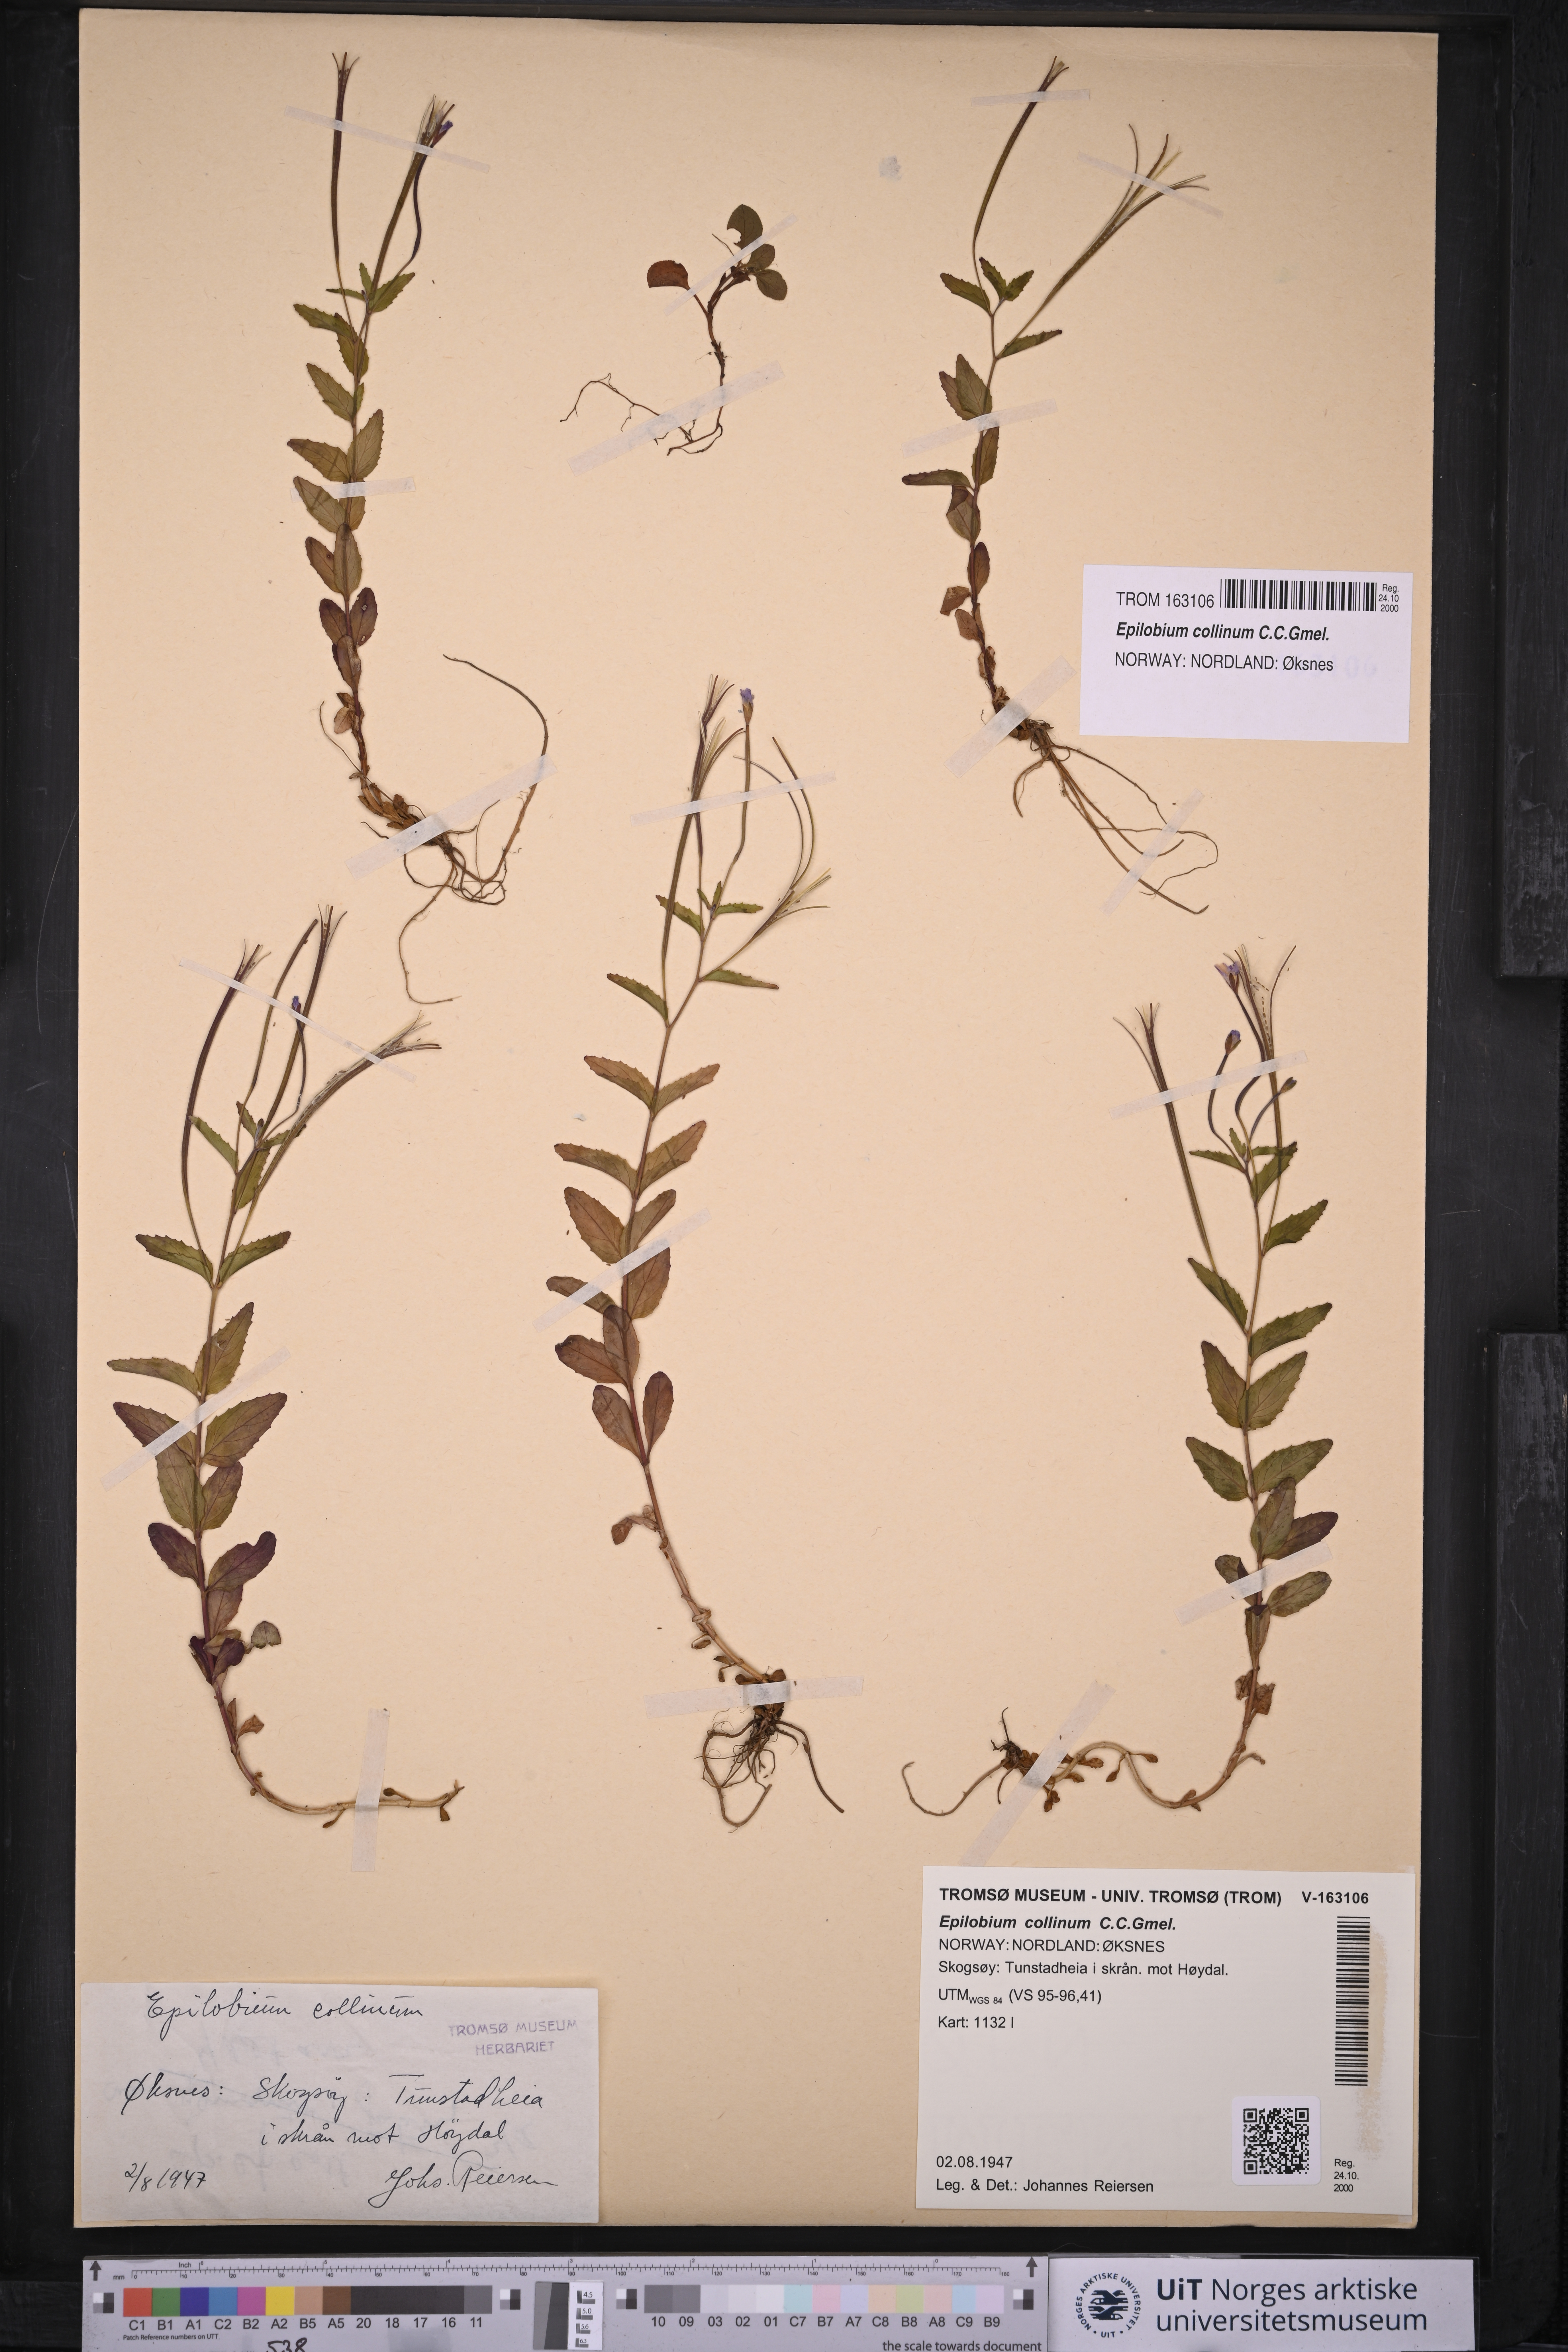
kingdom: Plantae
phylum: Tracheophyta
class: Magnoliopsida
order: Myrtales
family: Onagraceae
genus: Epilobium
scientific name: Epilobium collinum
